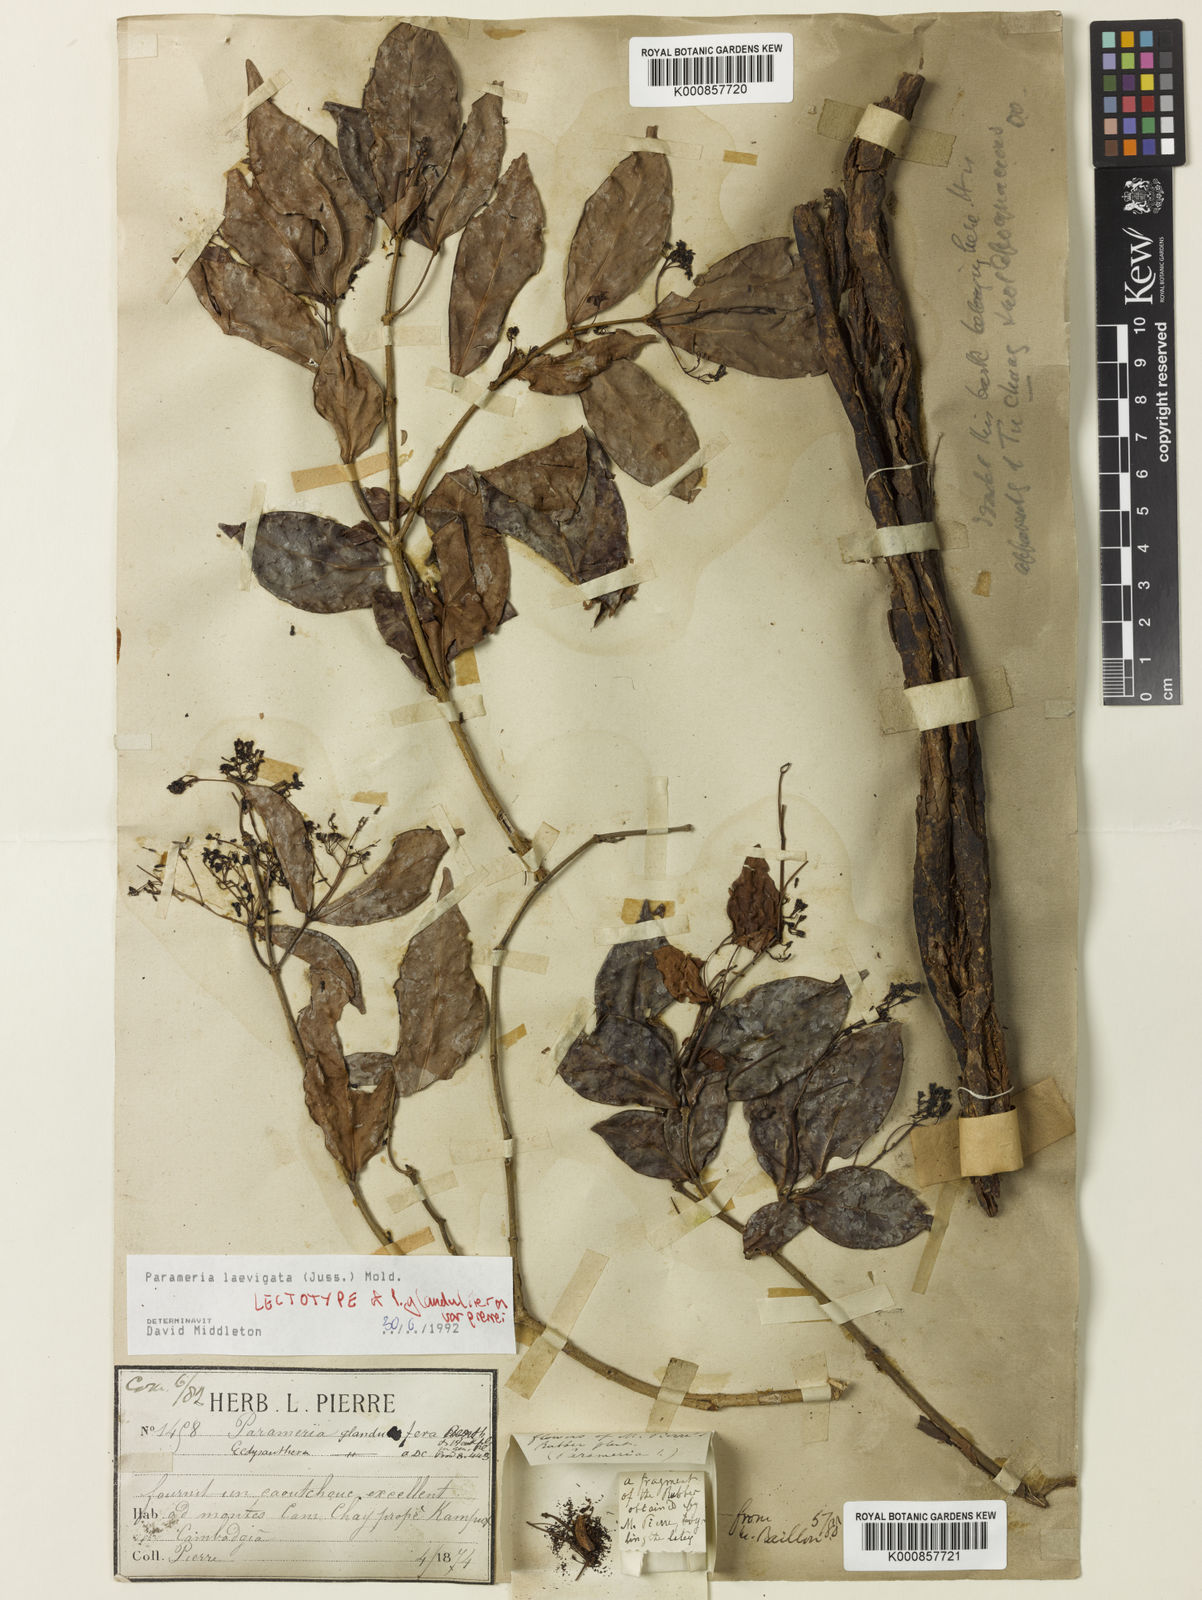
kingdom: Plantae
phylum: Tracheophyta
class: Magnoliopsida
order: Gentianales
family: Apocynaceae
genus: Urceola
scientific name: Urceola laevigata
